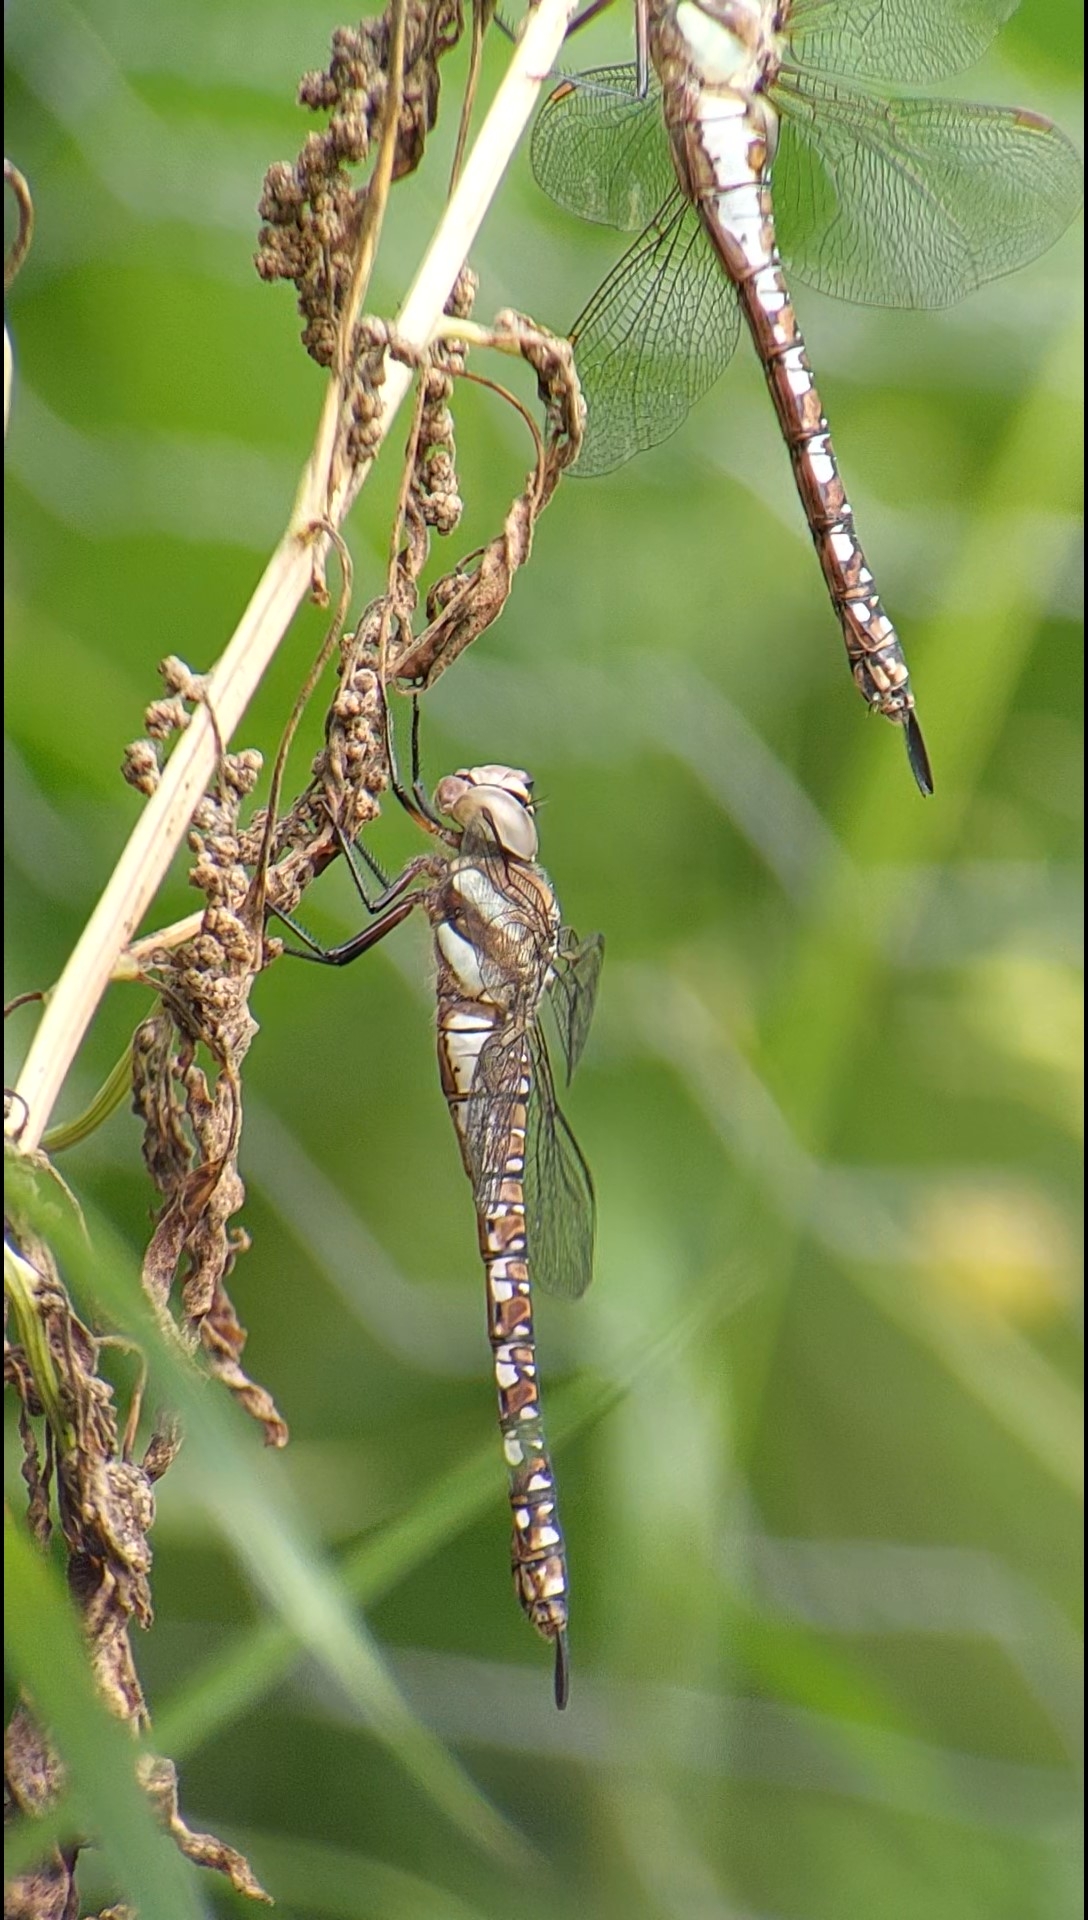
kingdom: Animalia
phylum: Arthropoda
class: Insecta
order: Odonata
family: Aeshnidae
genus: Aeshna
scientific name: Aeshna mixta
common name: Efterårs-mosaikguldsmed
